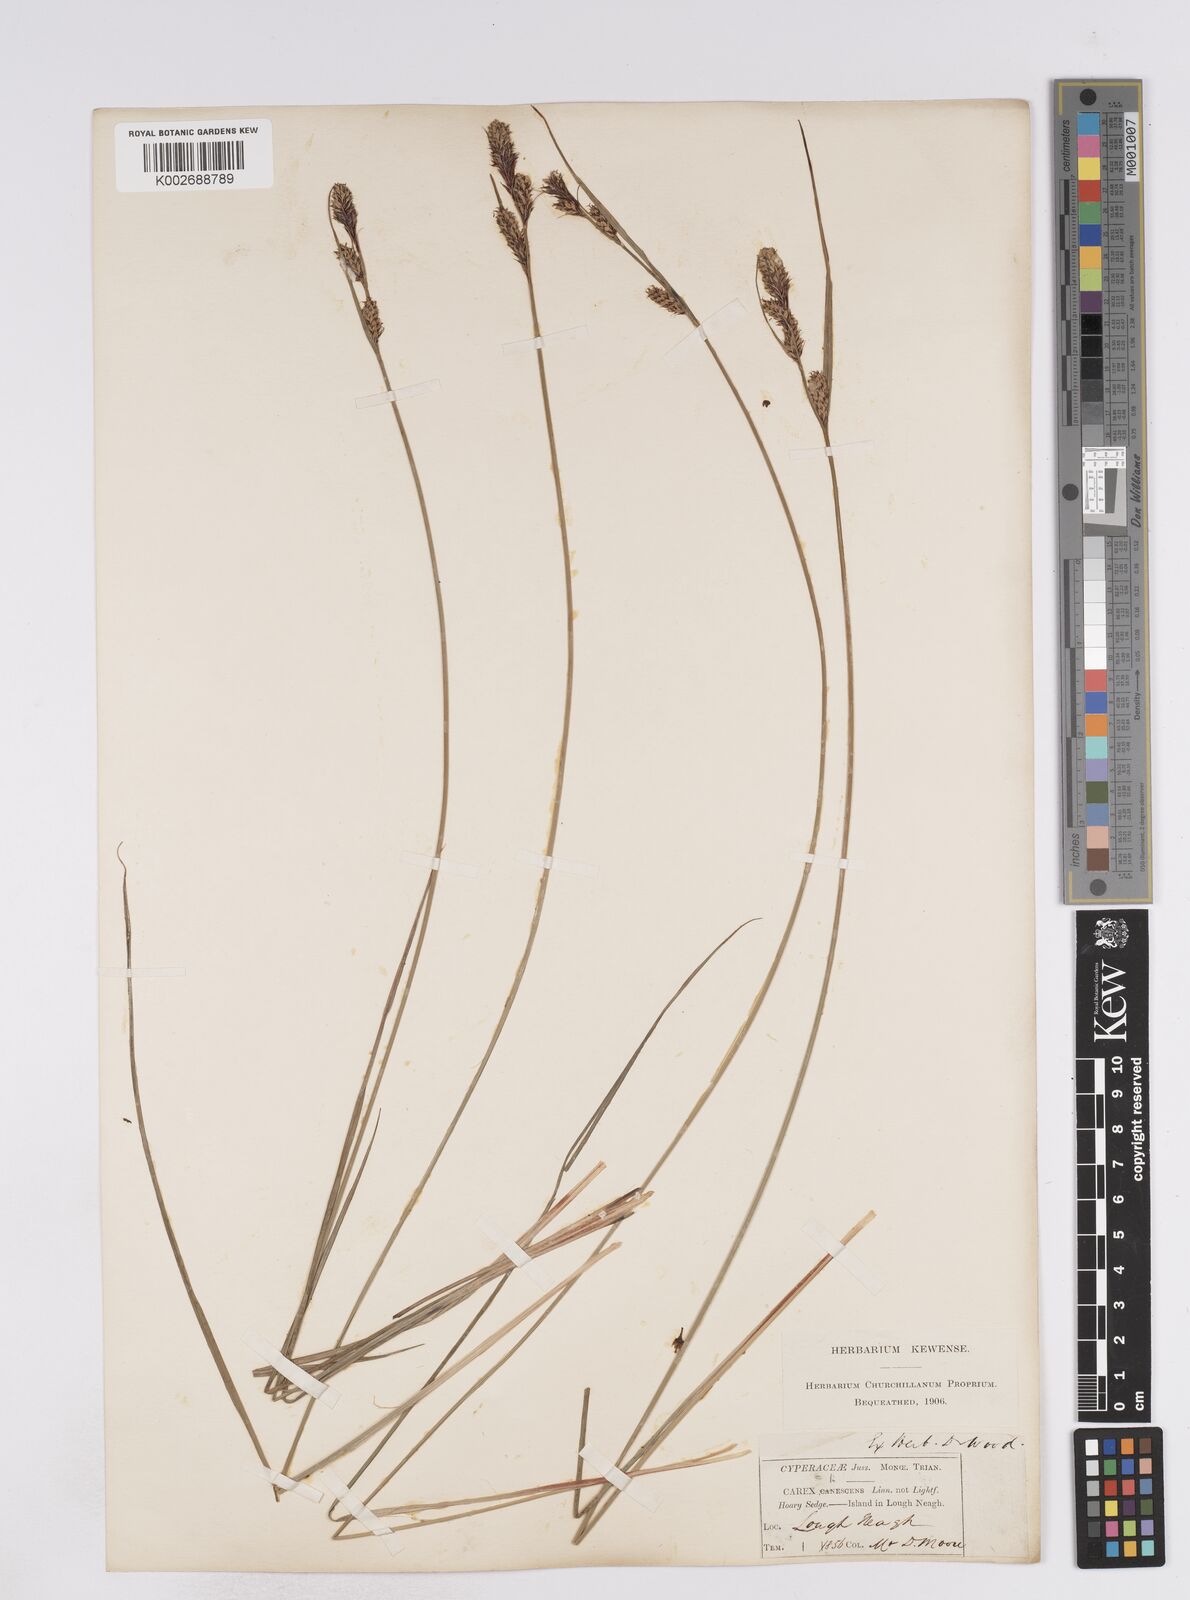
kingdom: Plantae
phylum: Tracheophyta
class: Liliopsida
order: Poales
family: Cyperaceae
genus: Carex
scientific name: Carex buxbaumii
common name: Club sedge
